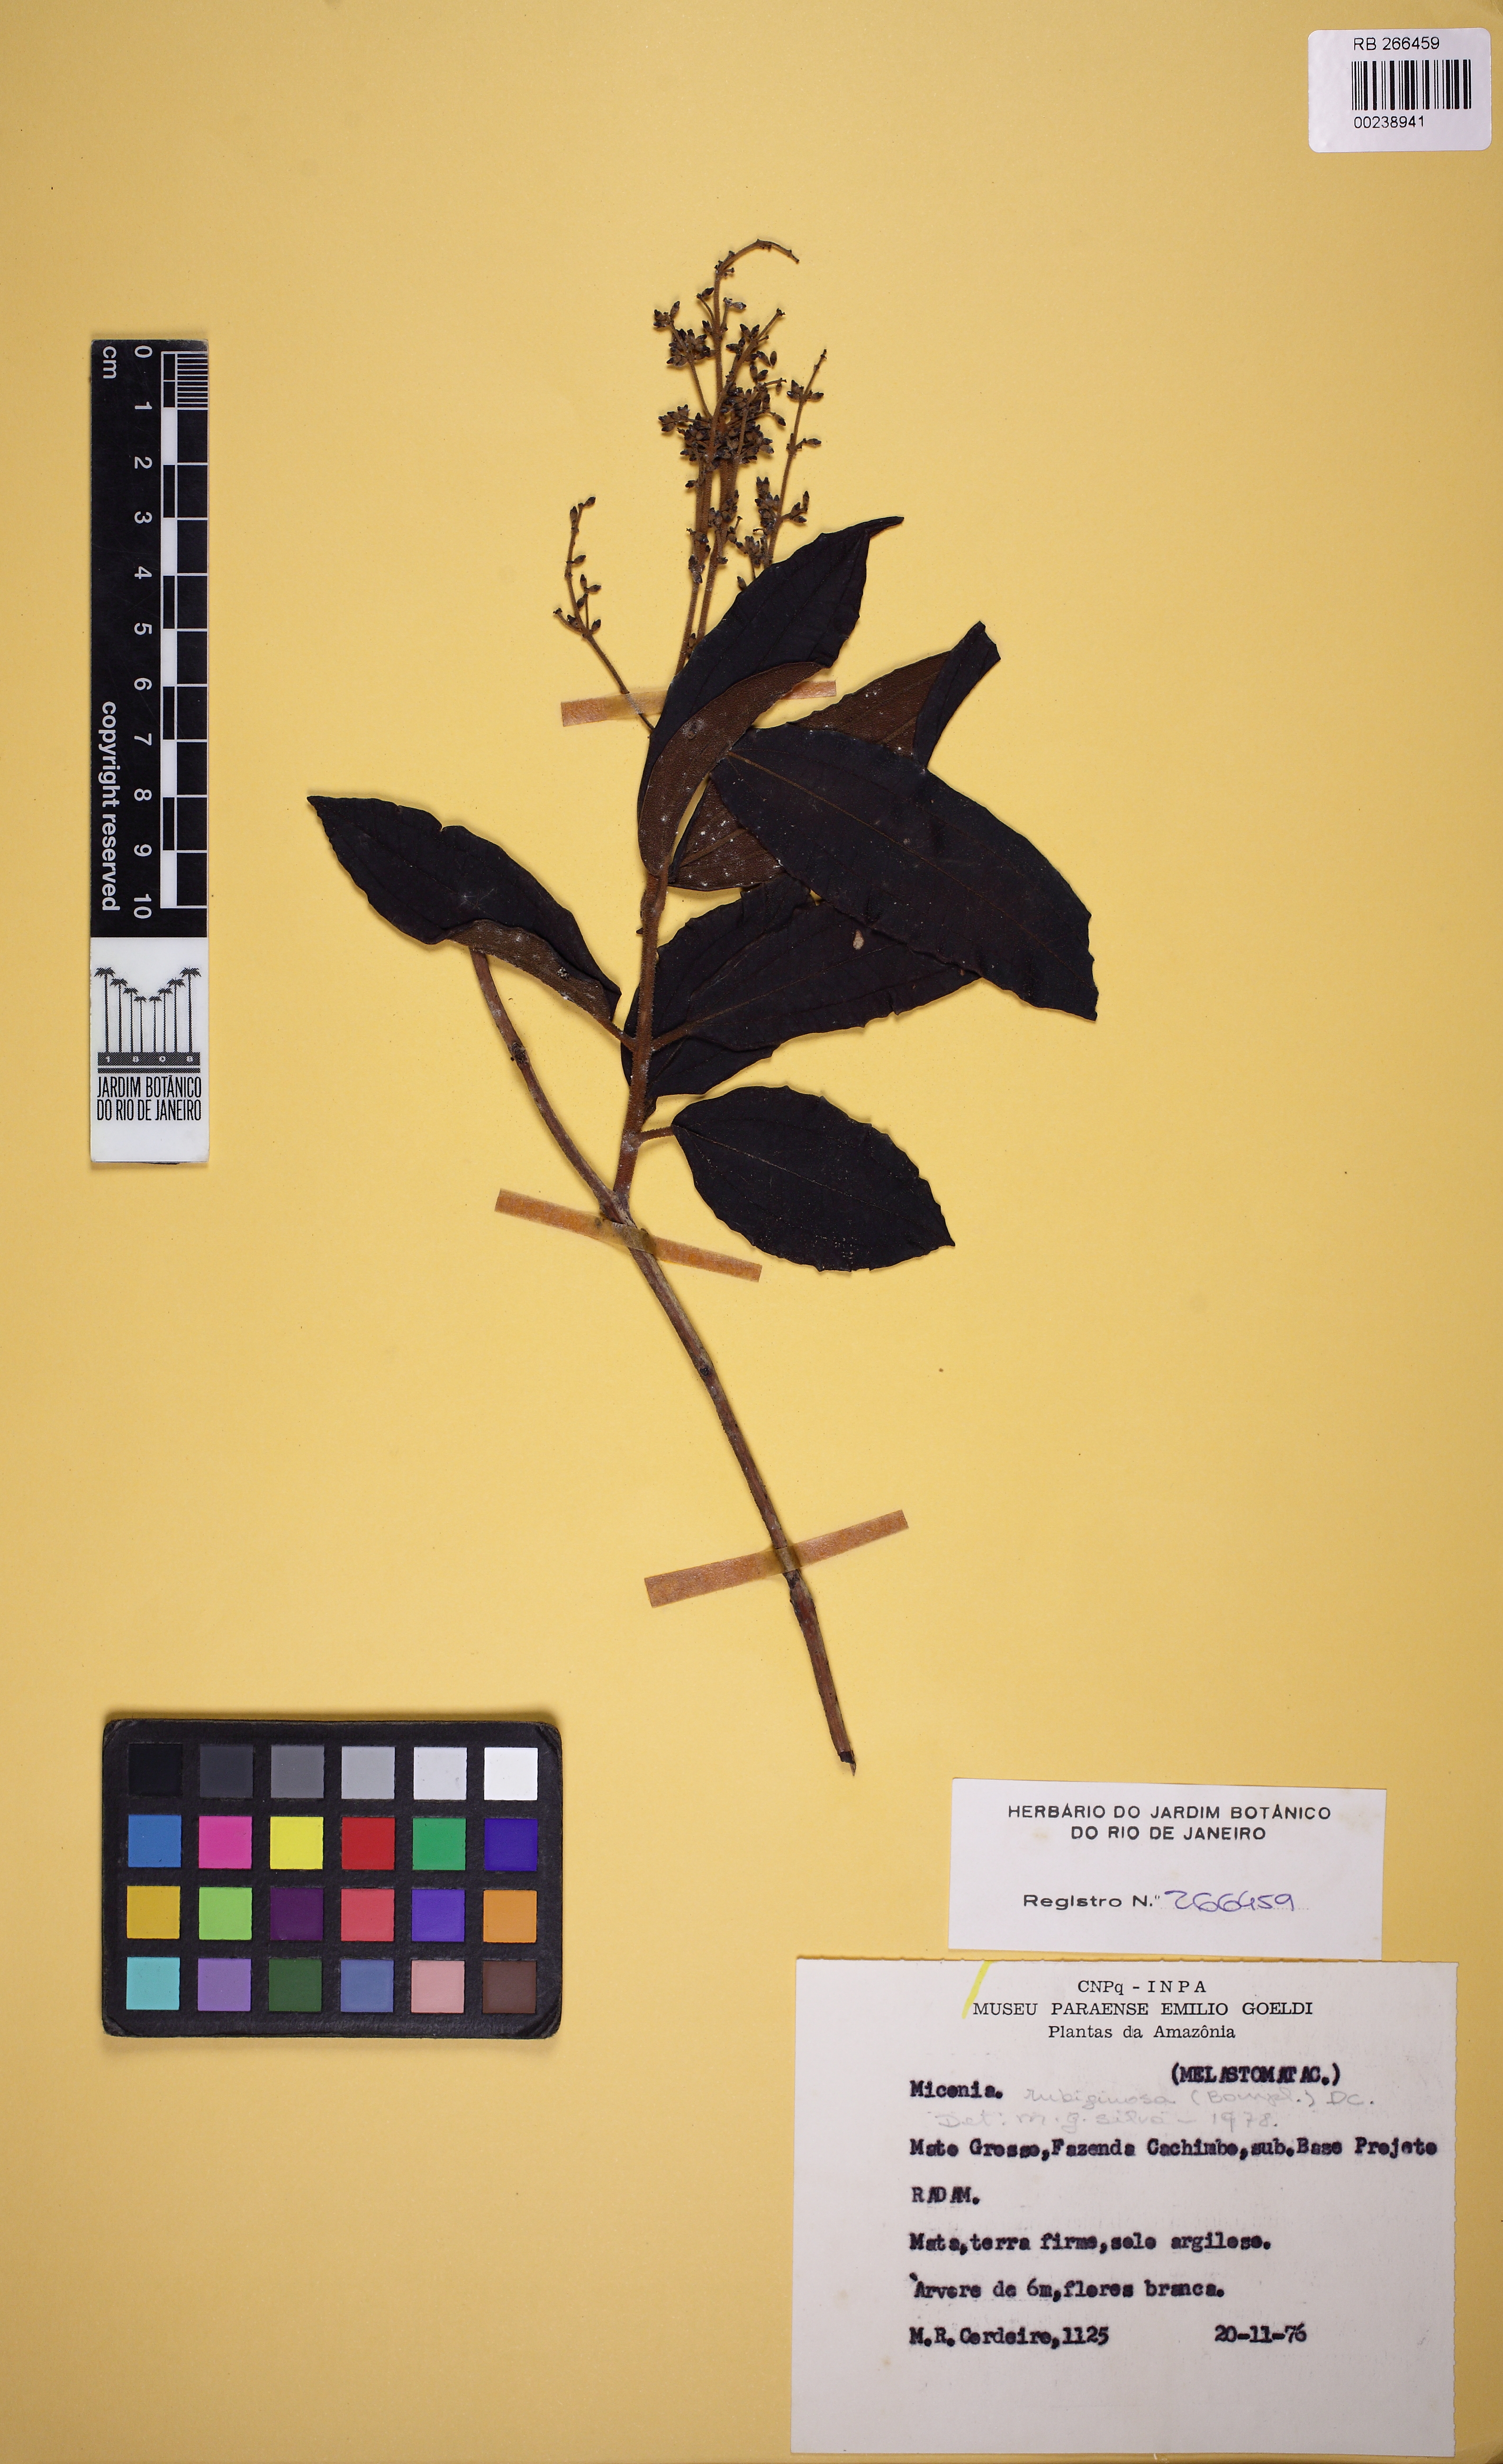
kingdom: Plantae
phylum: Tracheophyta
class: Magnoliopsida
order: Myrtales
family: Melastomataceae
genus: Miconia
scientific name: Miconia rubiginosa
